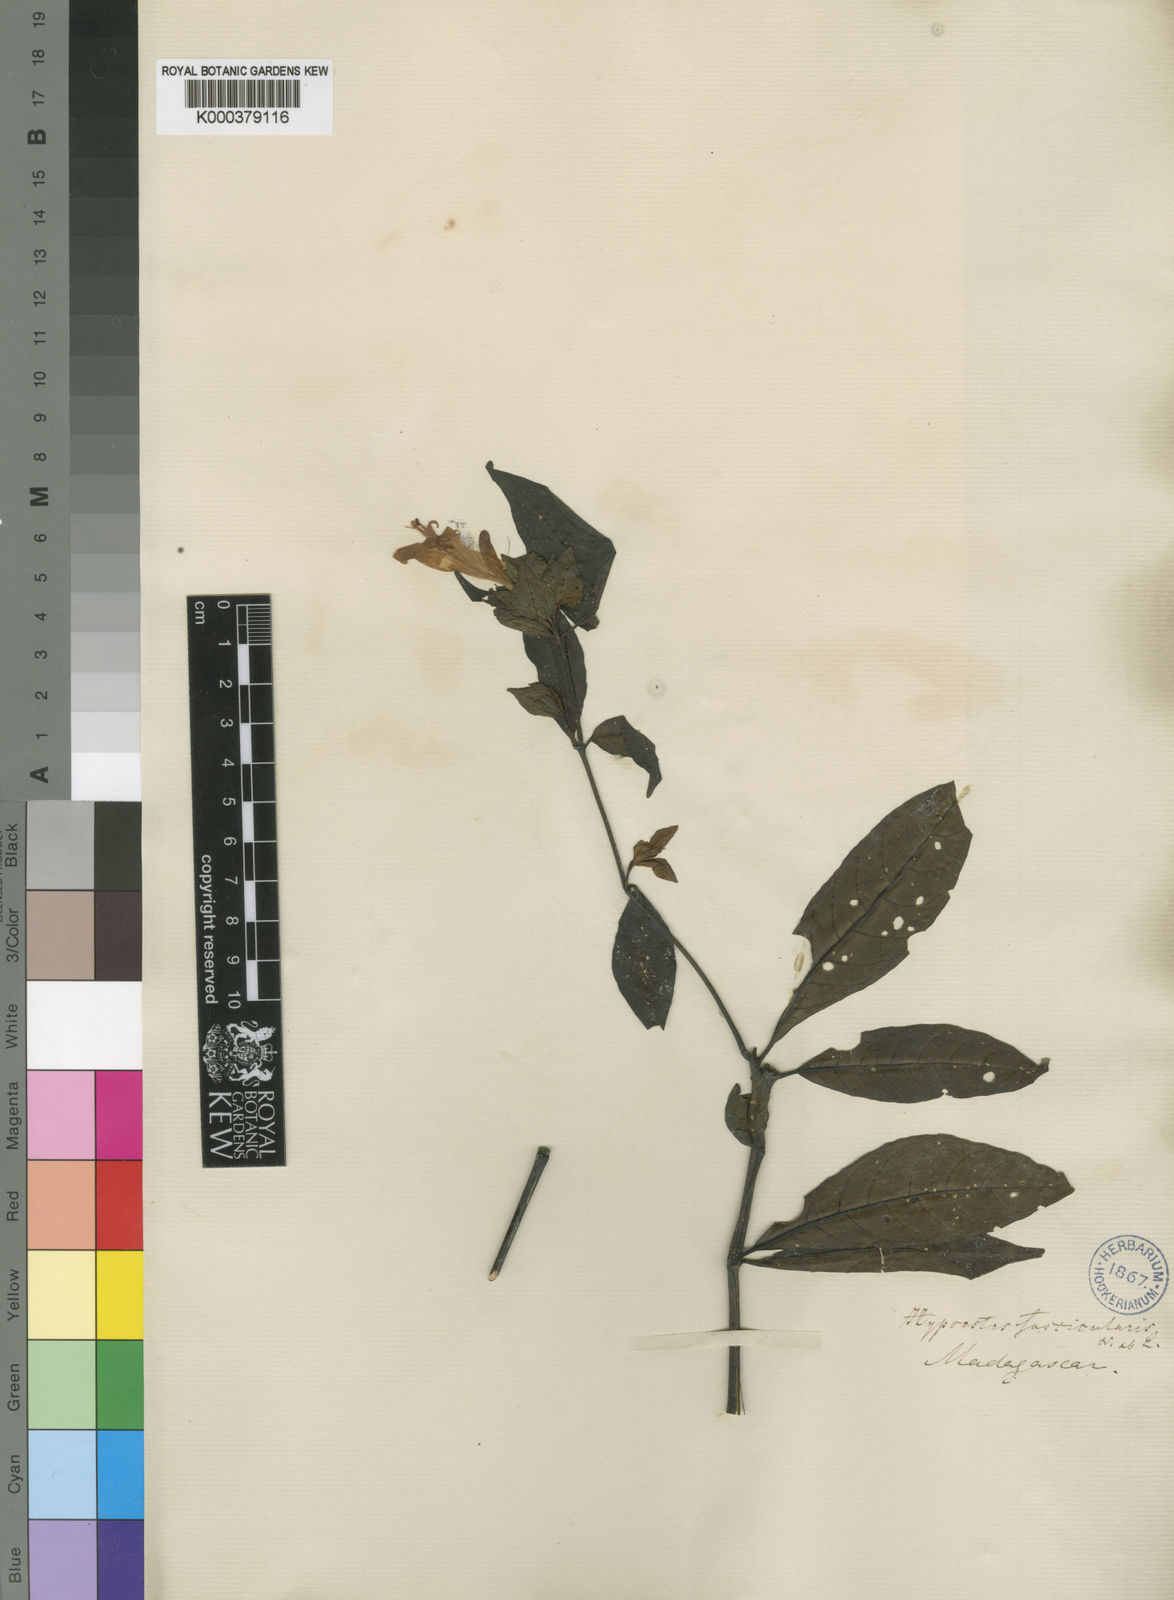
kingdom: Plantae
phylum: Tracheophyta
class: Magnoliopsida
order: Lamiales
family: Acanthaceae
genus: Hypoestes
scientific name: Hypoestes fascicularis
